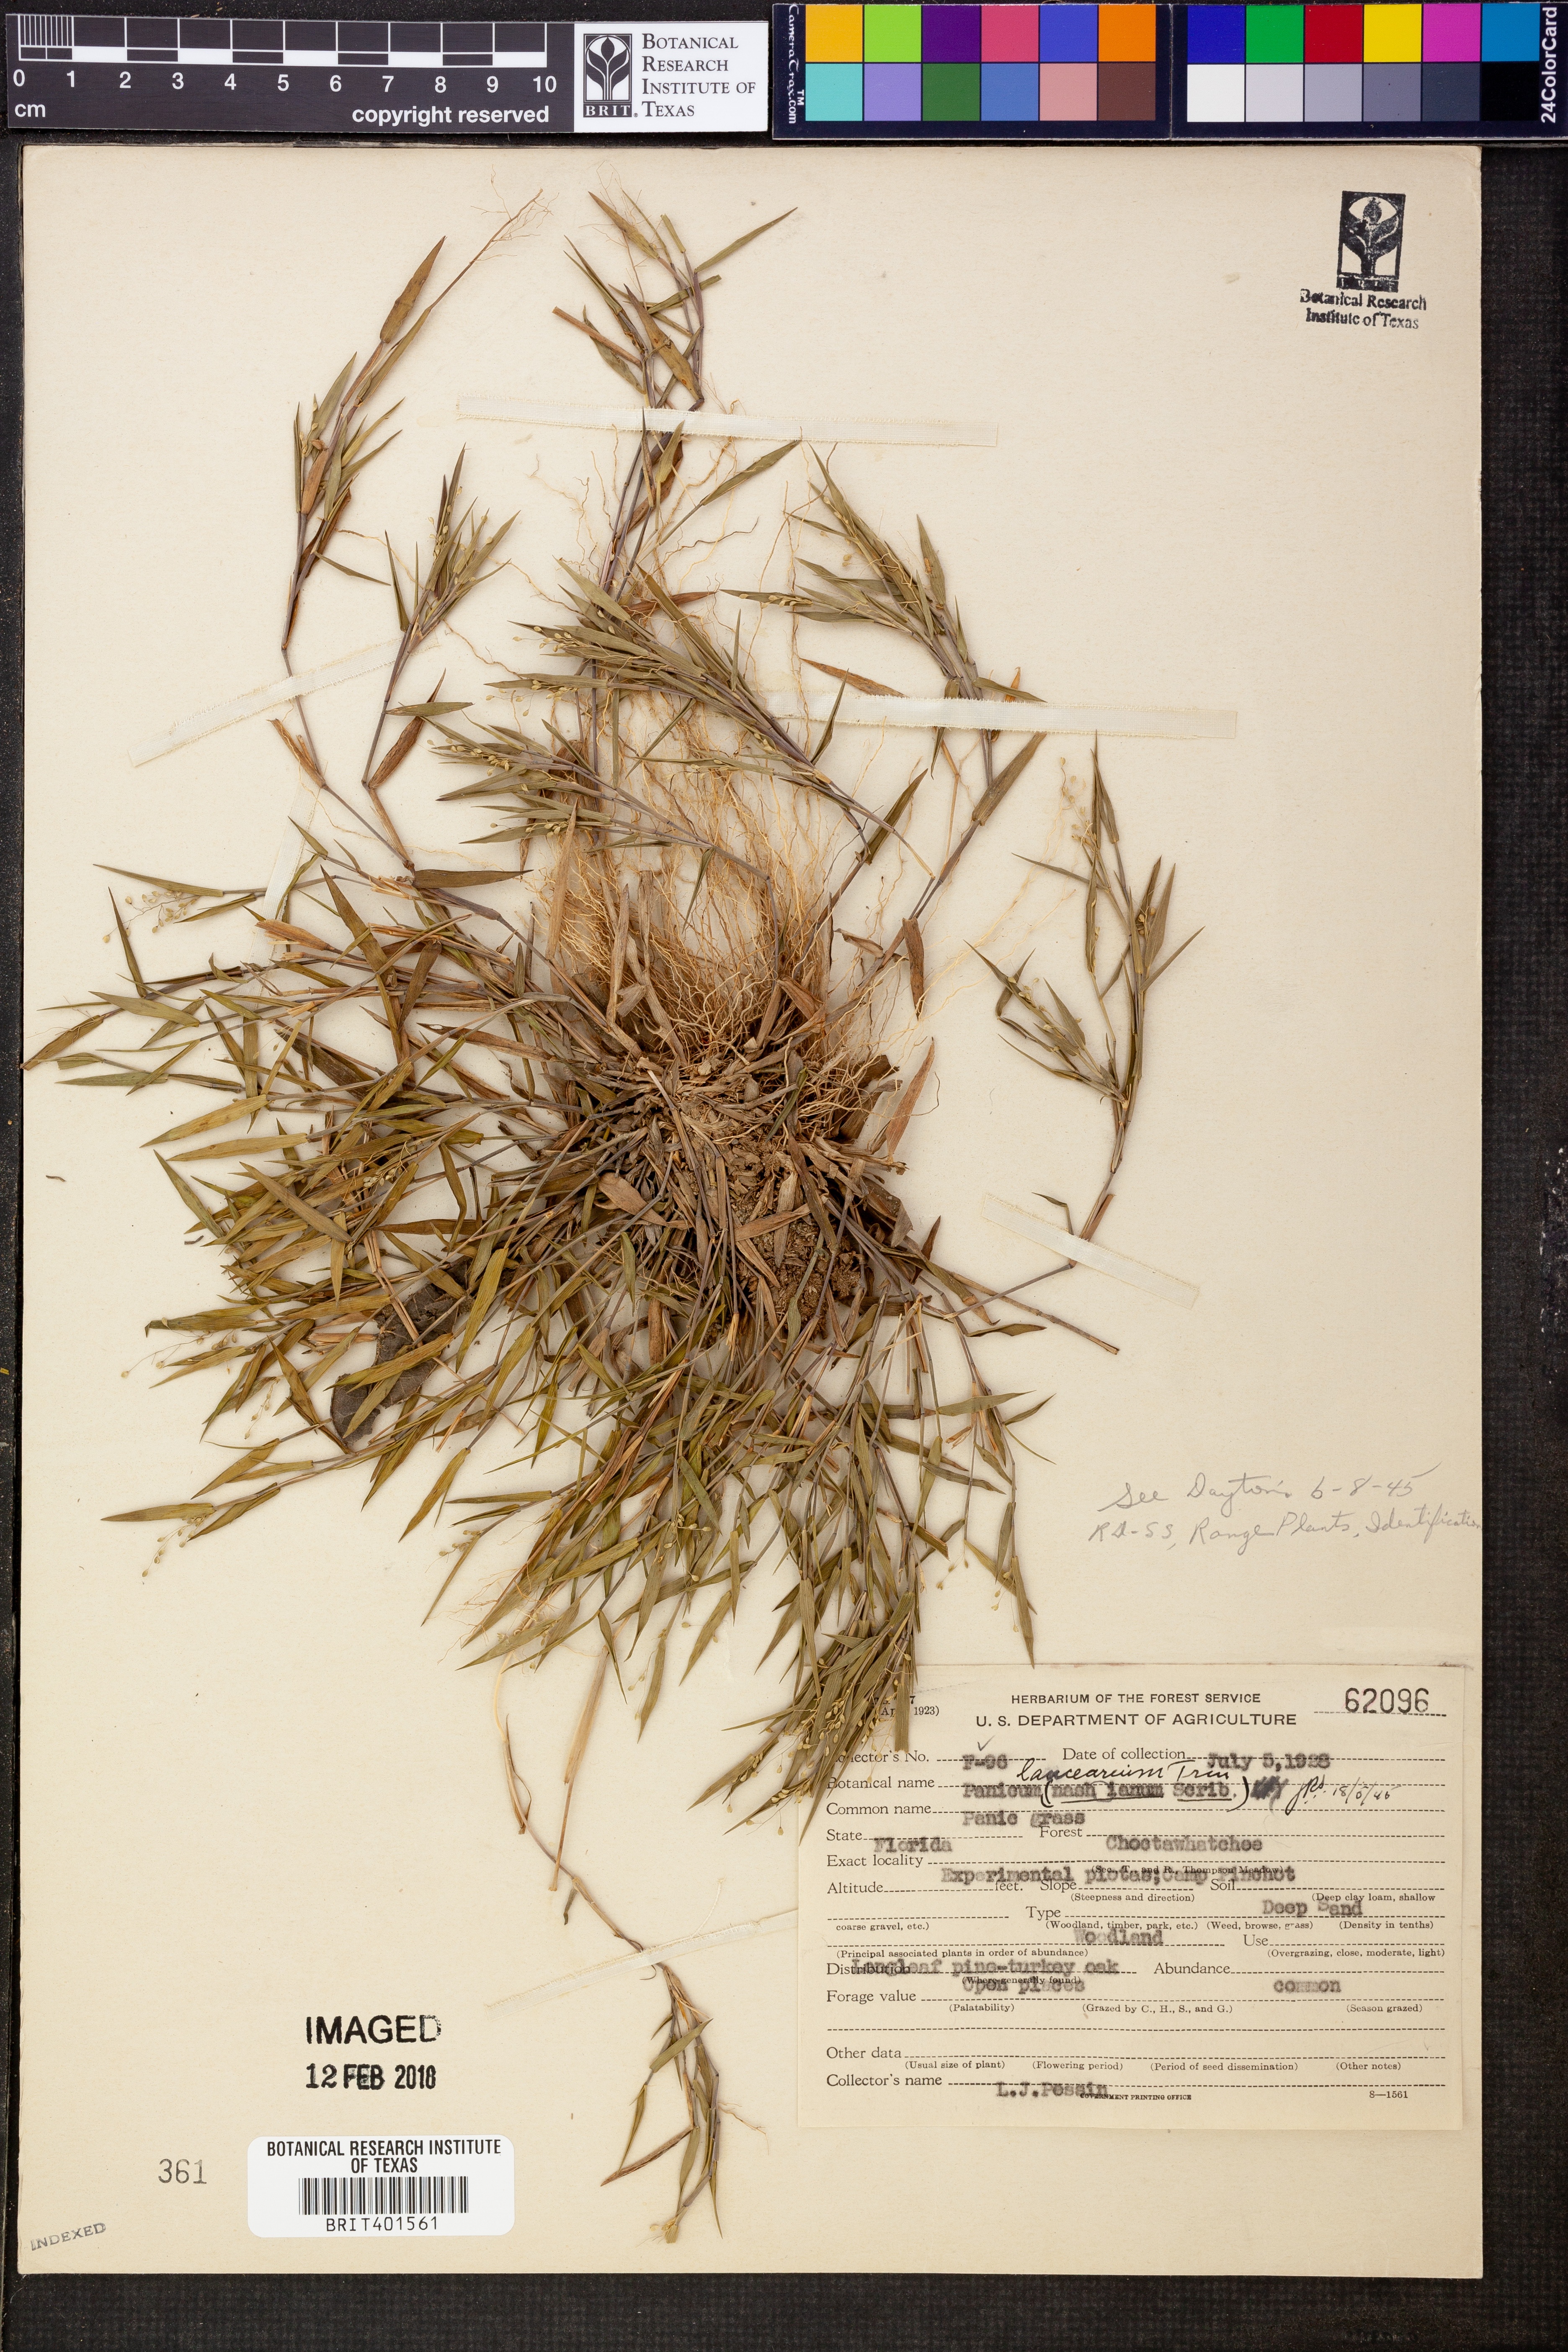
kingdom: Plantae
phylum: Tracheophyta
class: Liliopsida
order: Poales
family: Poaceae
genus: Dichanthelium
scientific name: Dichanthelium portoricense
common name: American panicgrass
